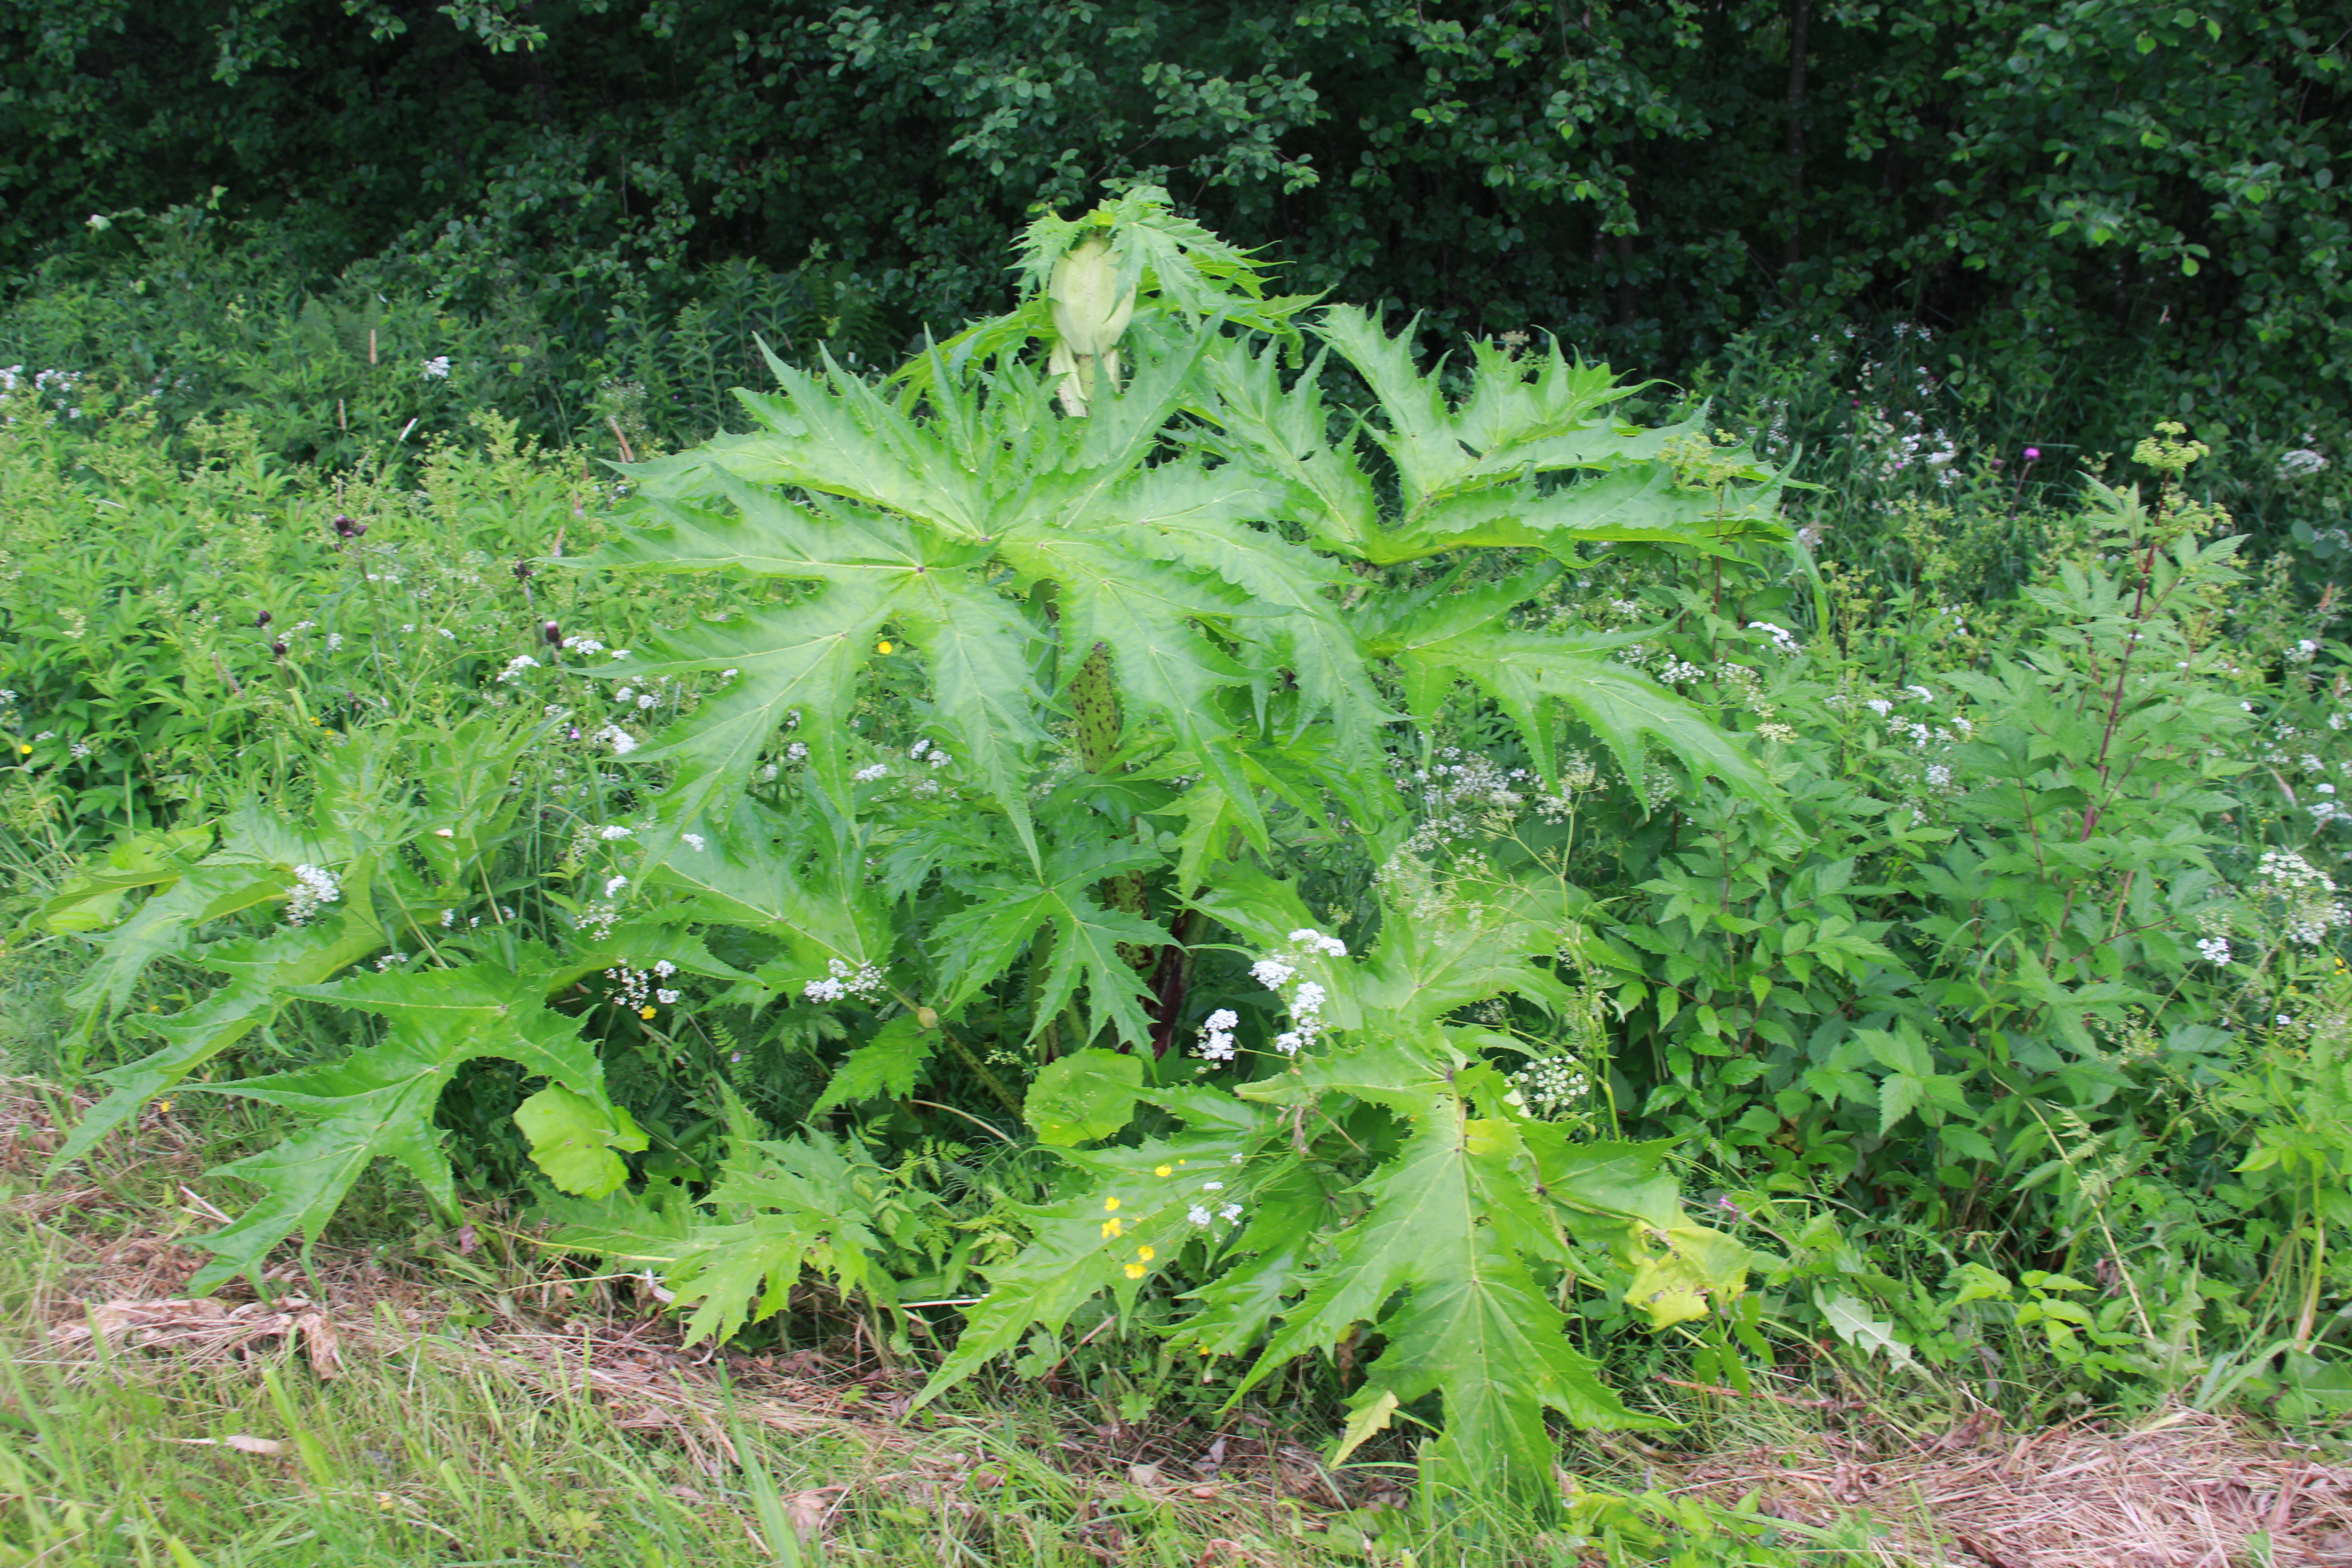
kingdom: Plantae
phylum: Tracheophyta
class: Magnoliopsida
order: Apiales
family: Apiaceae
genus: Heracleum
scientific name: Heracleum
